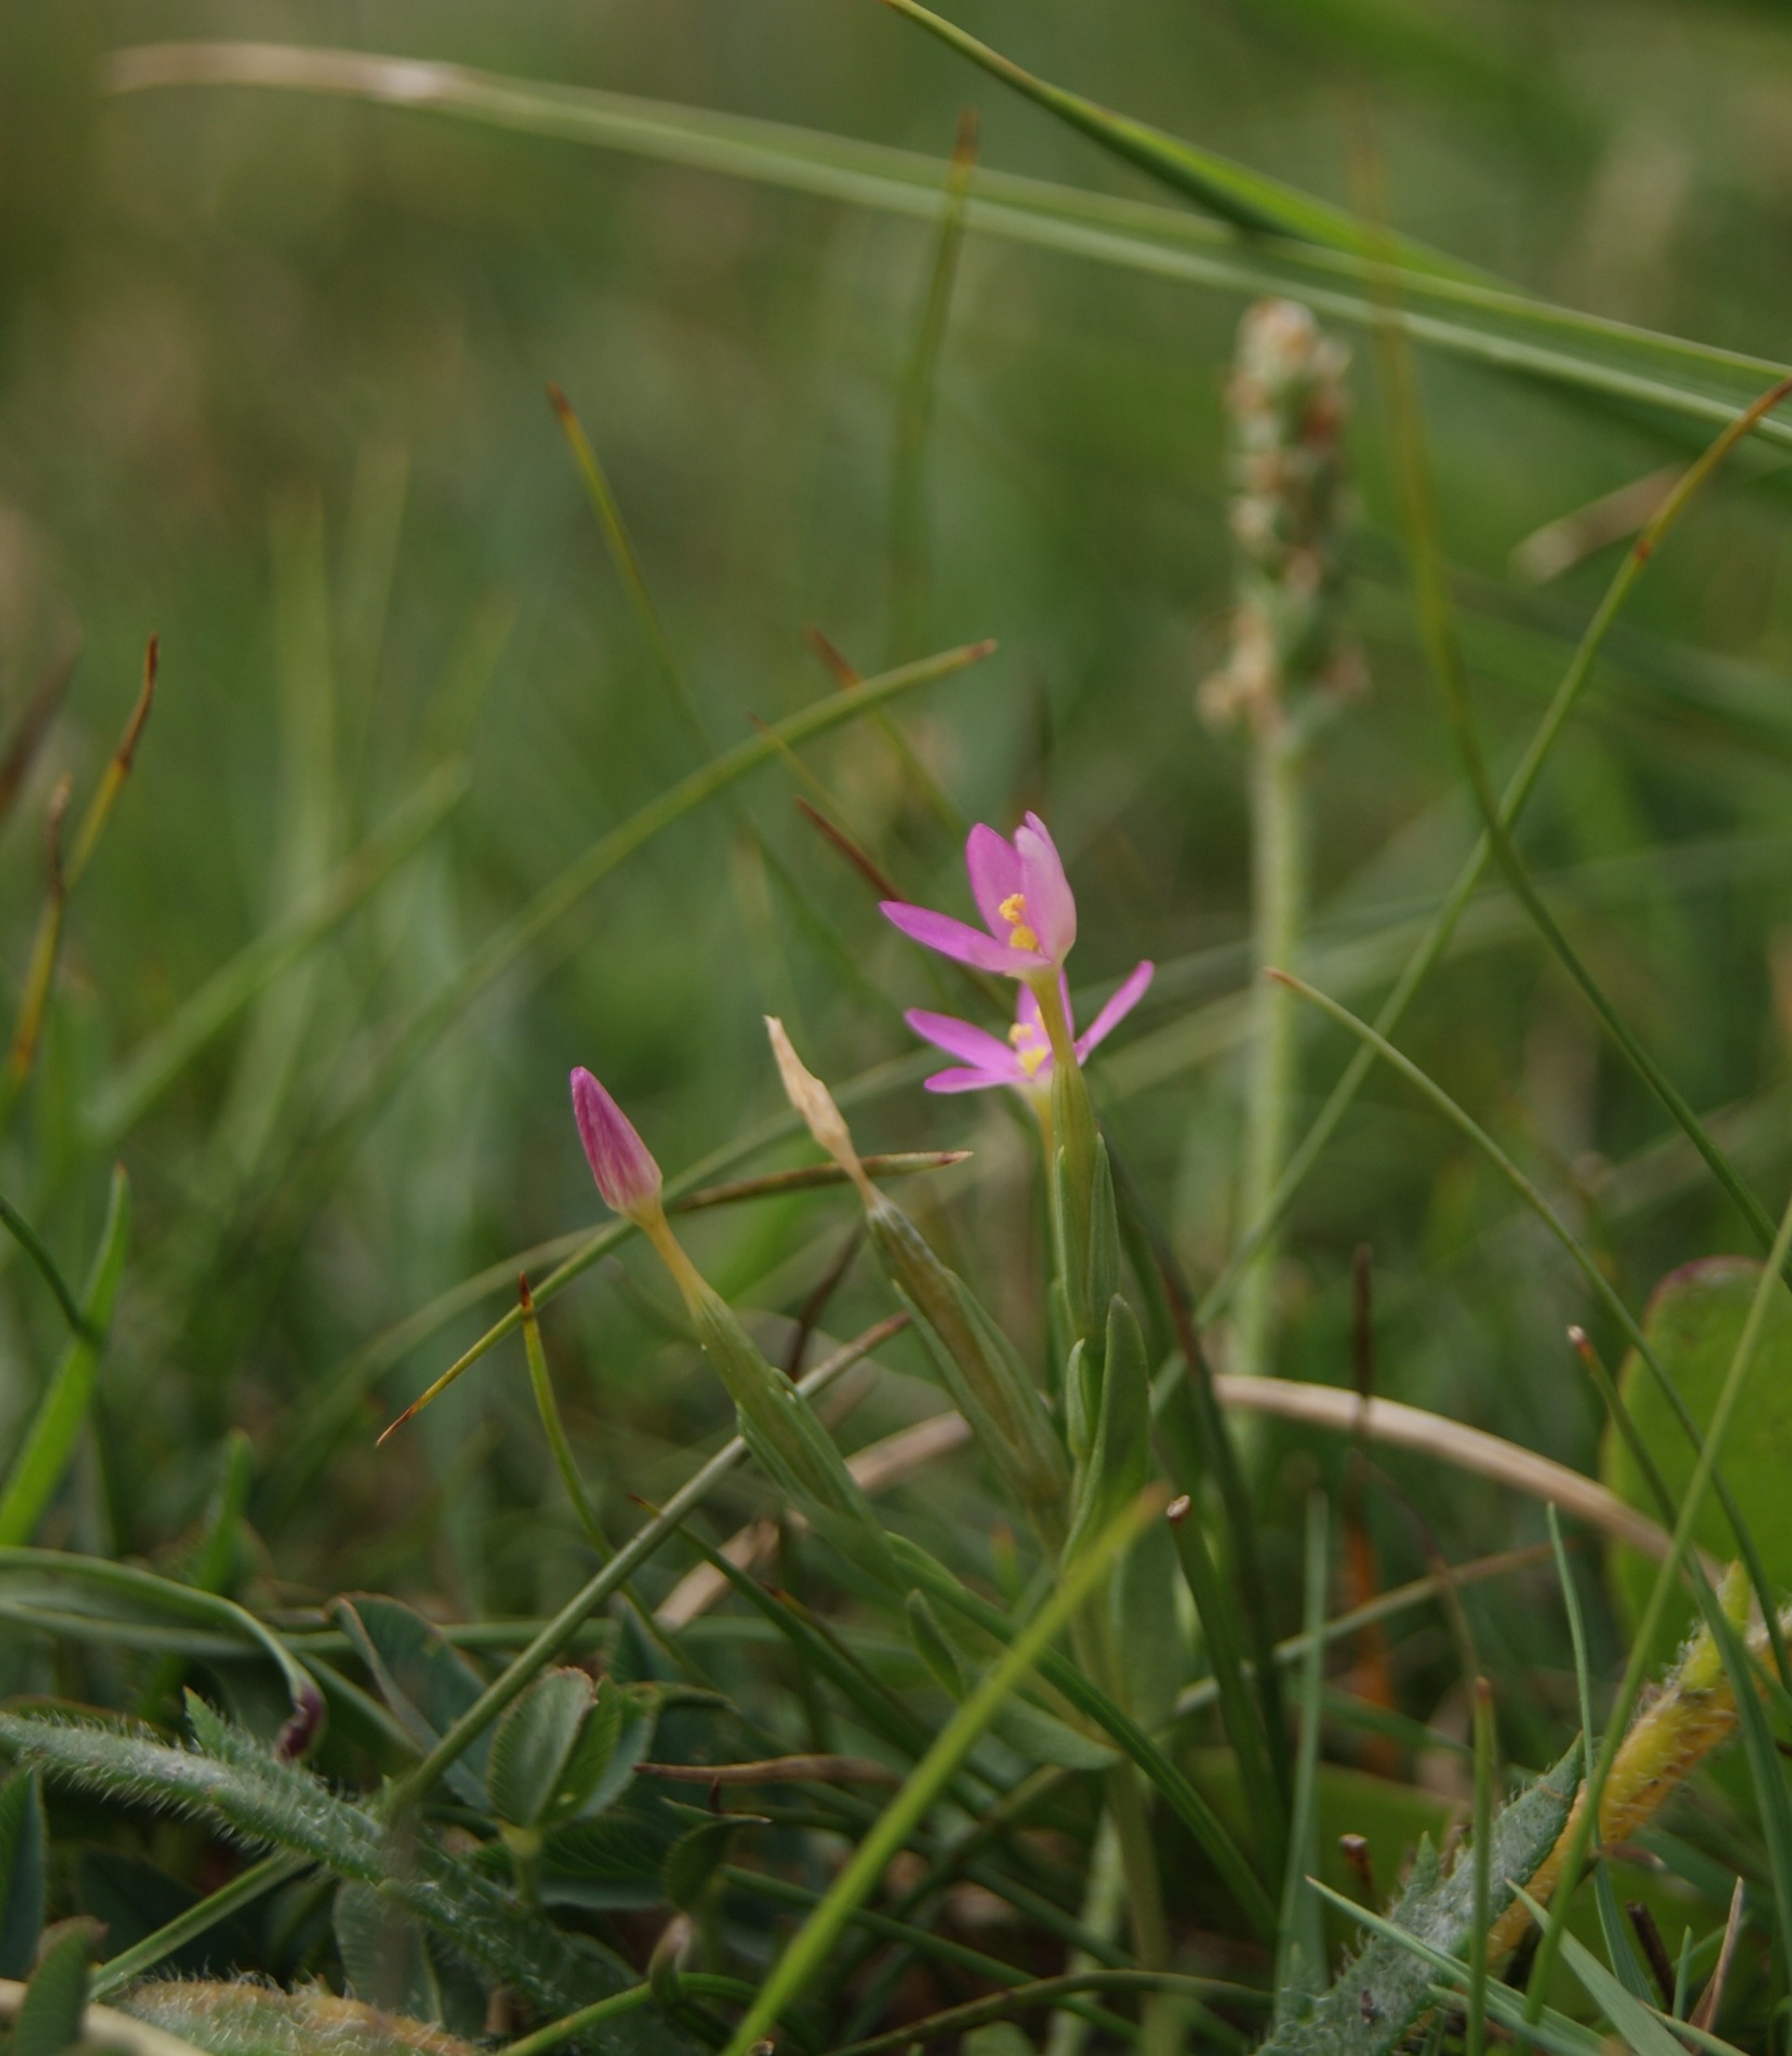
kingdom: Plantae
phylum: Tracheophyta
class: Magnoliopsida
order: Gentianales
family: Gentianaceae
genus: Centaurium
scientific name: Centaurium pulchellum
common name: Liden tusindgylden
